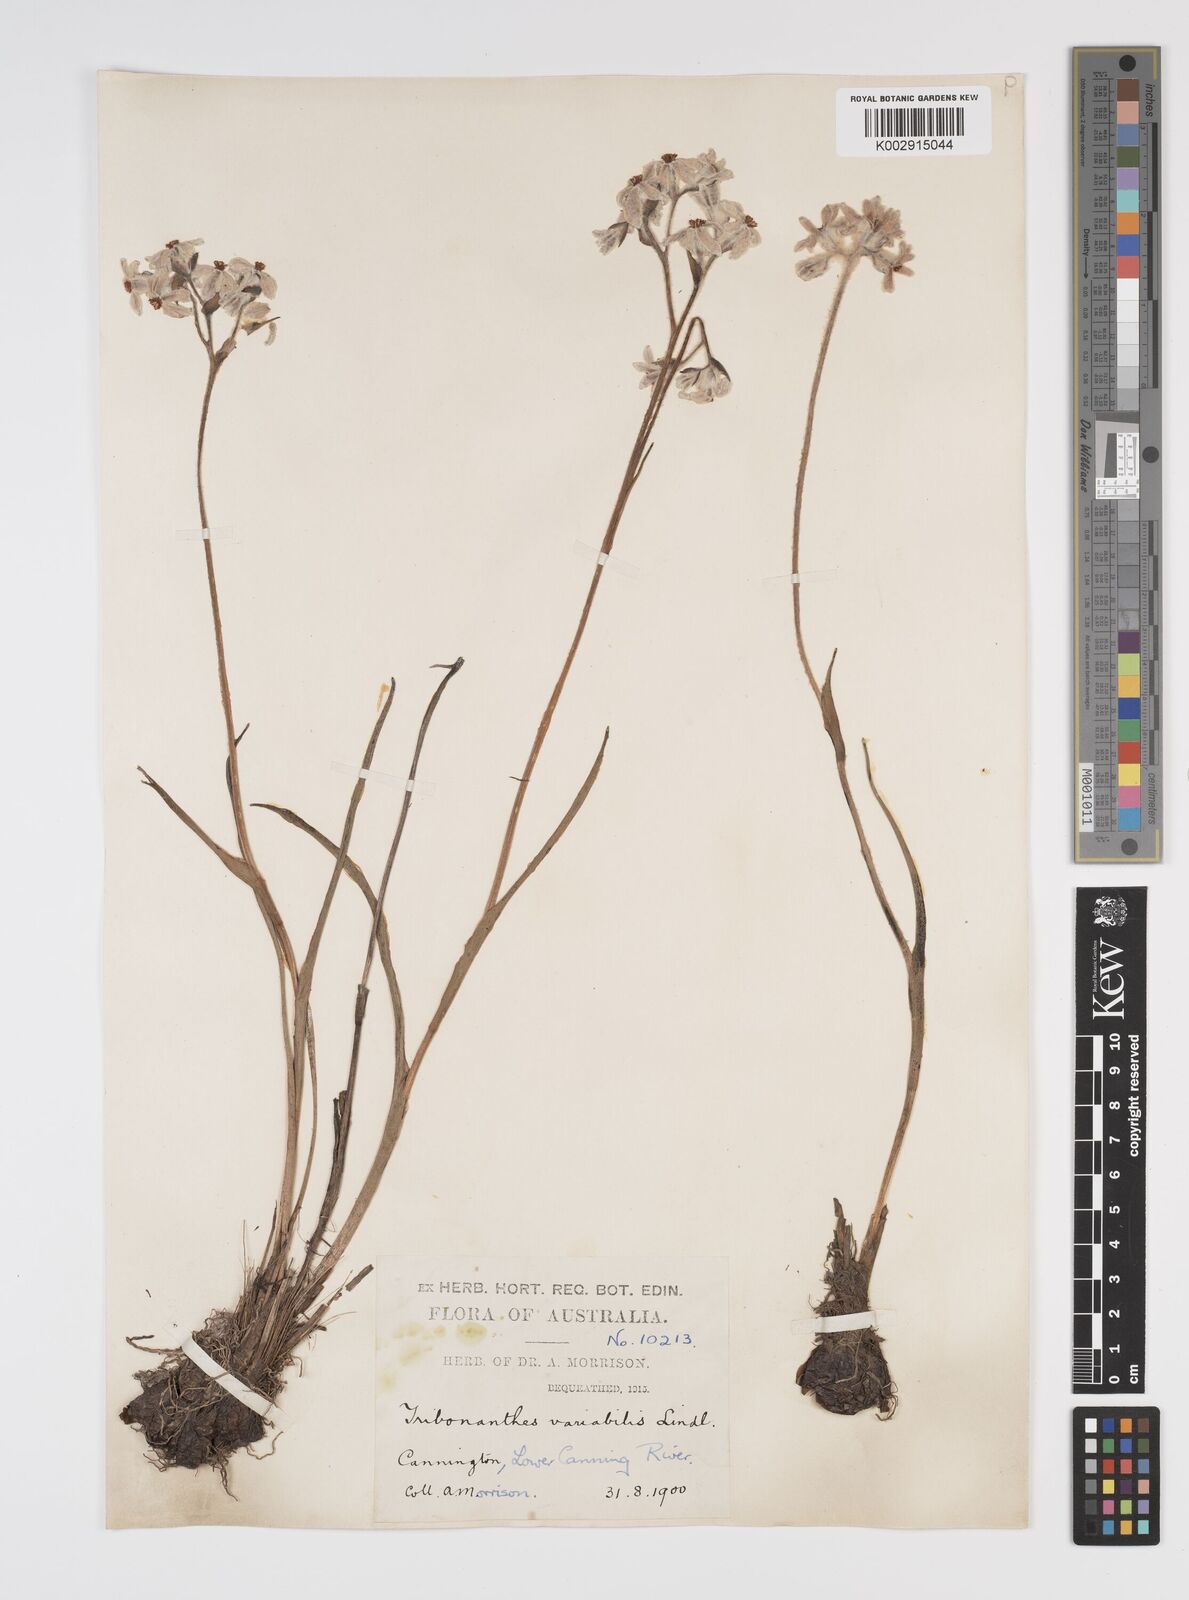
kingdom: Plantae
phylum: Tracheophyta
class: Liliopsida
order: Commelinales
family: Haemodoraceae
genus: Tribonanthes
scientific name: Tribonanthes australis
